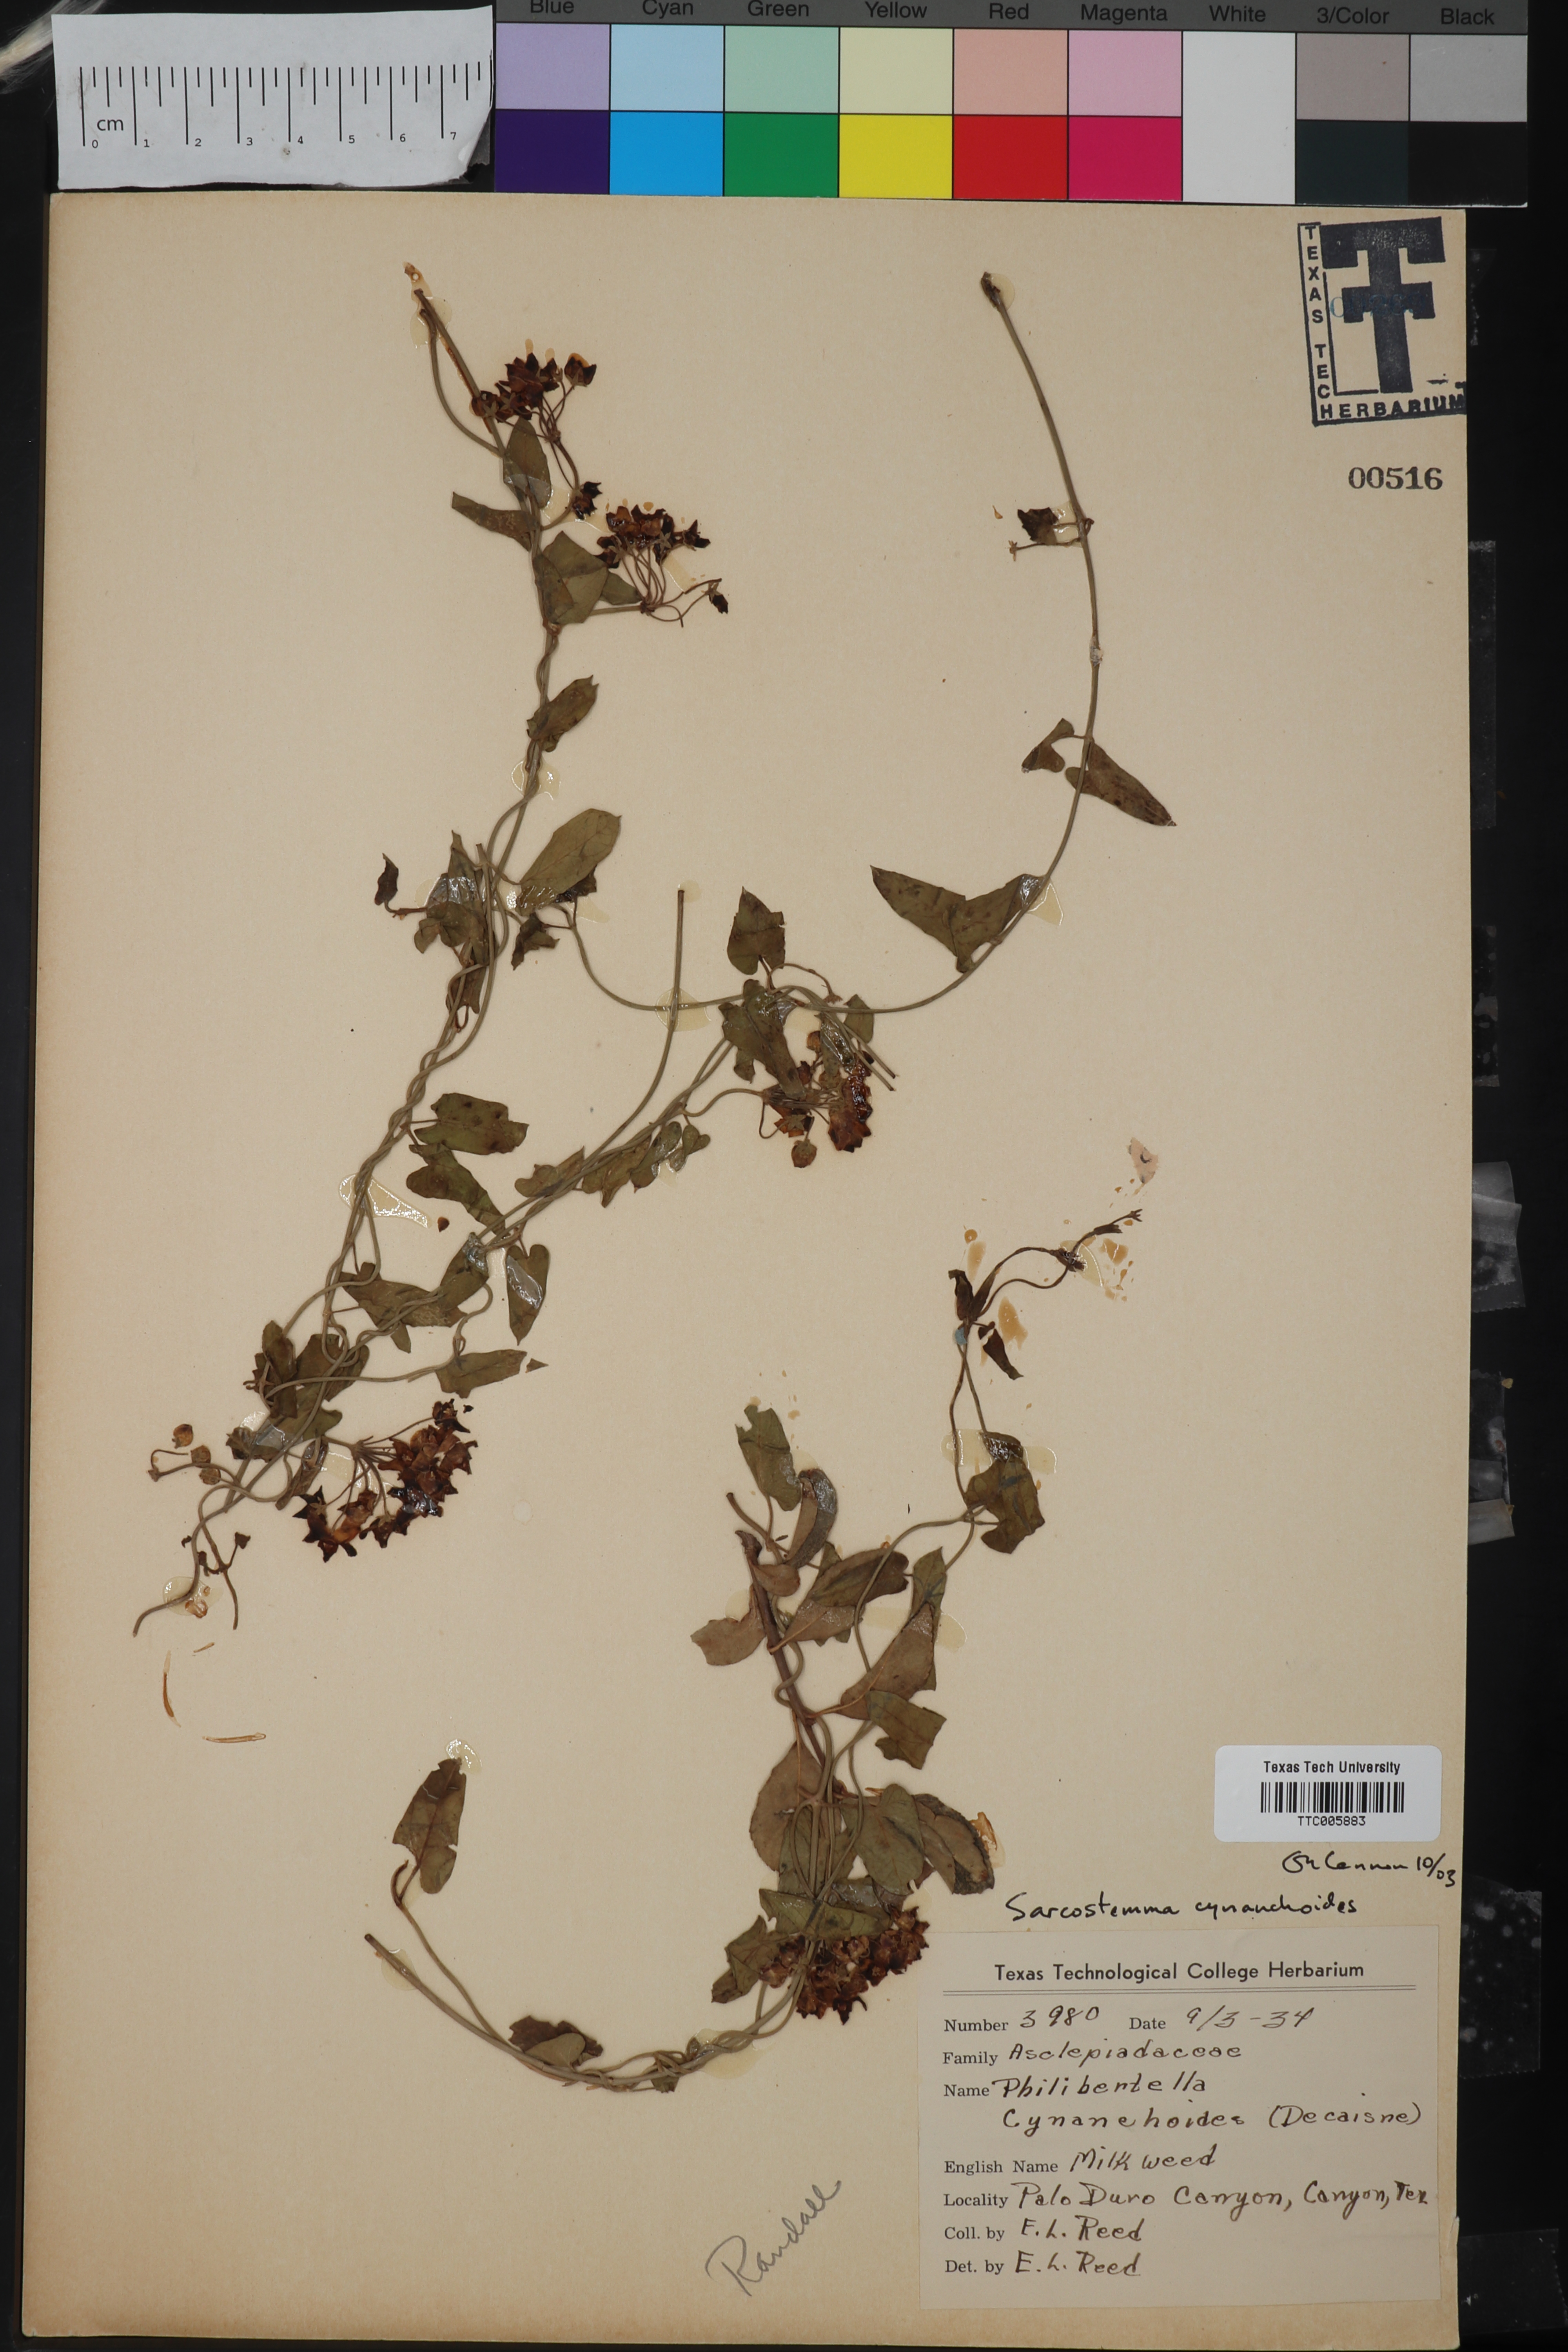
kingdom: Plantae
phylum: Tracheophyta
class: Magnoliopsida
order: Gentianales
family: Apocynaceae
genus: Funastrum
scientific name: Funastrum cynanchoides
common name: Climbing-milkweed
